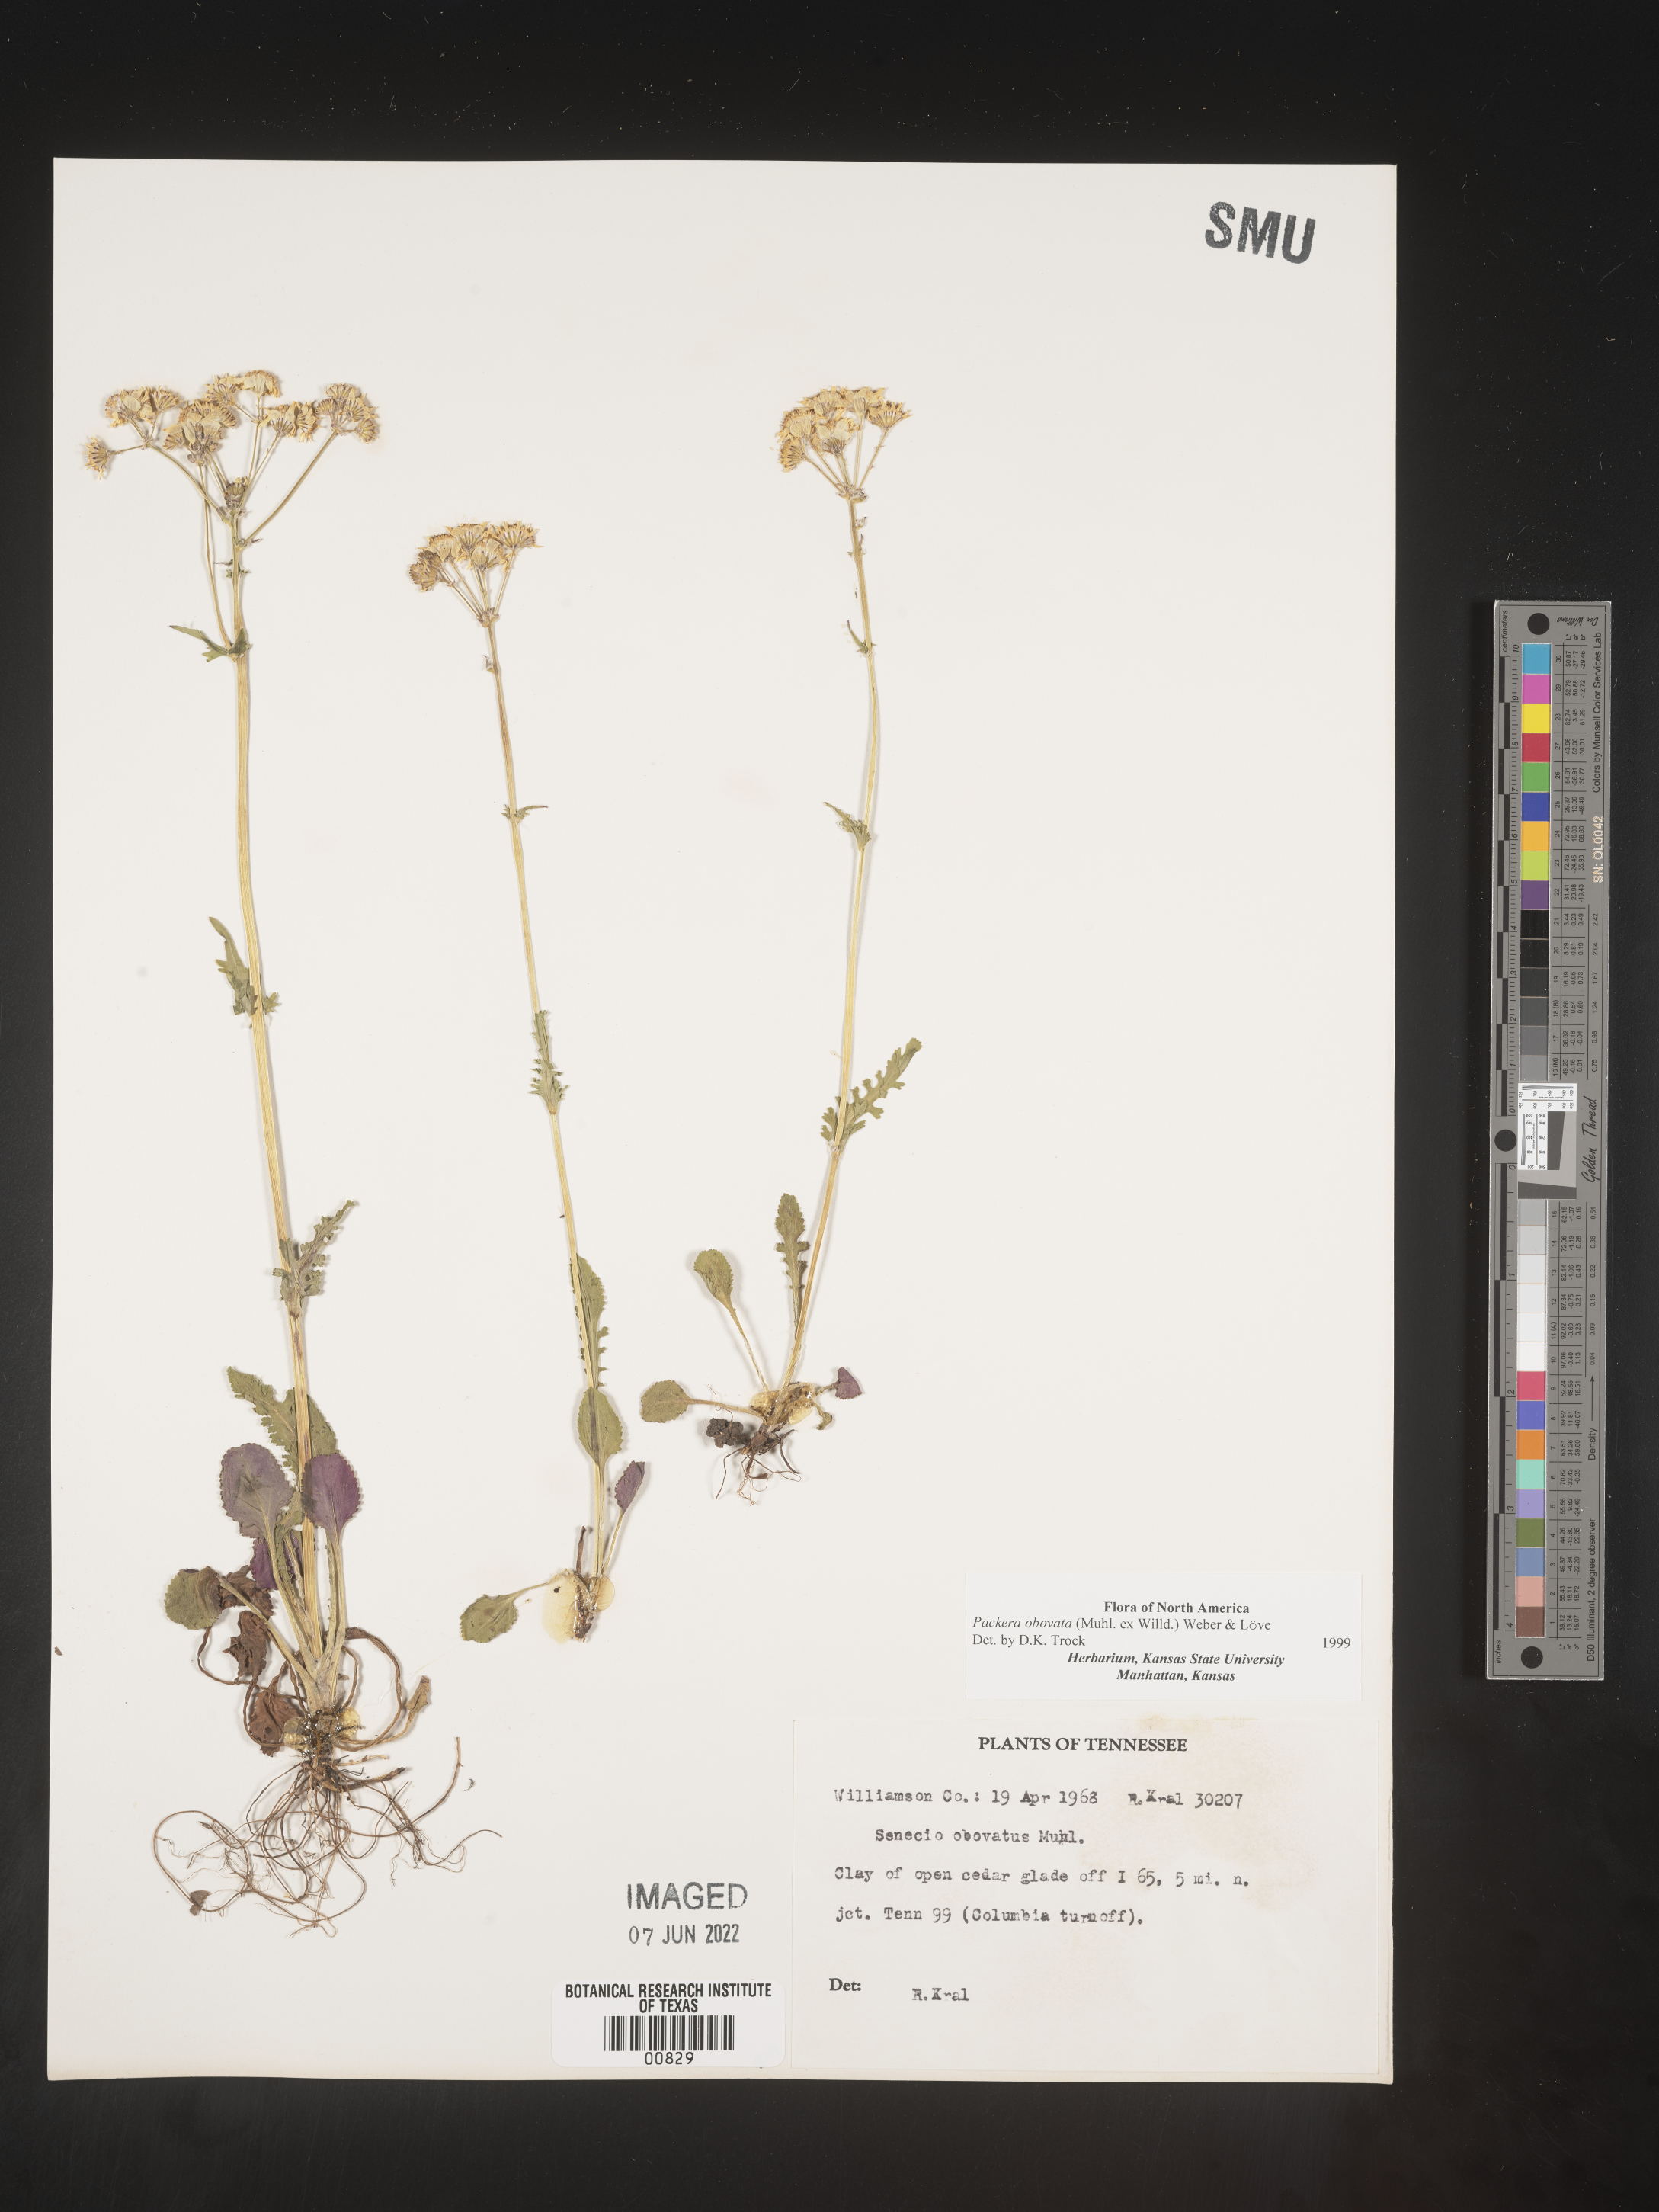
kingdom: Plantae
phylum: Tracheophyta
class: Magnoliopsida
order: Asterales
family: Asteraceae
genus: Packera
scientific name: Packera obovata
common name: Round-leaf ragwort
